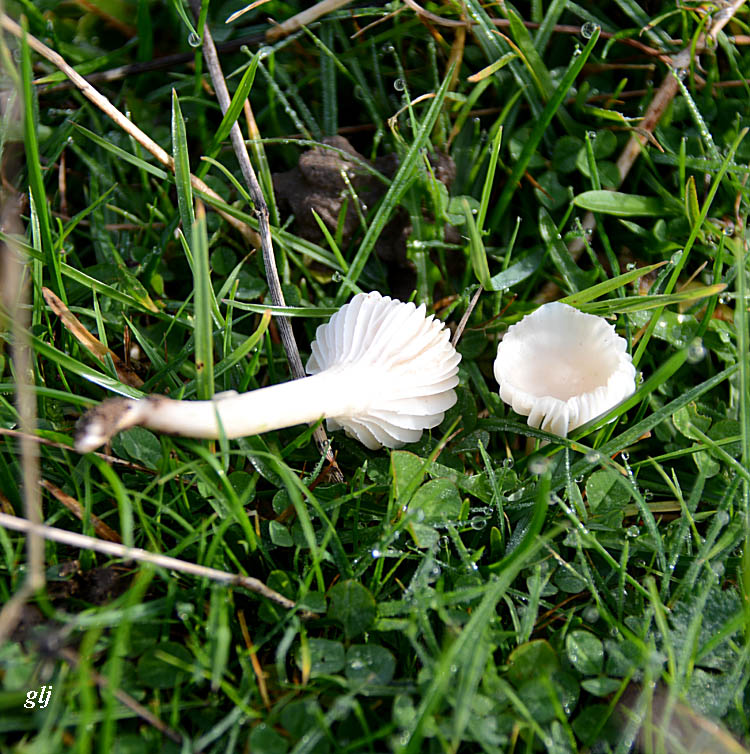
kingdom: Fungi
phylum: Basidiomycota
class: Agaricomycetes
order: Agaricales
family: Hygrophoraceae
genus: Cuphophyllus
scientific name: Cuphophyllus virgineus
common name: snehvid vokshat
